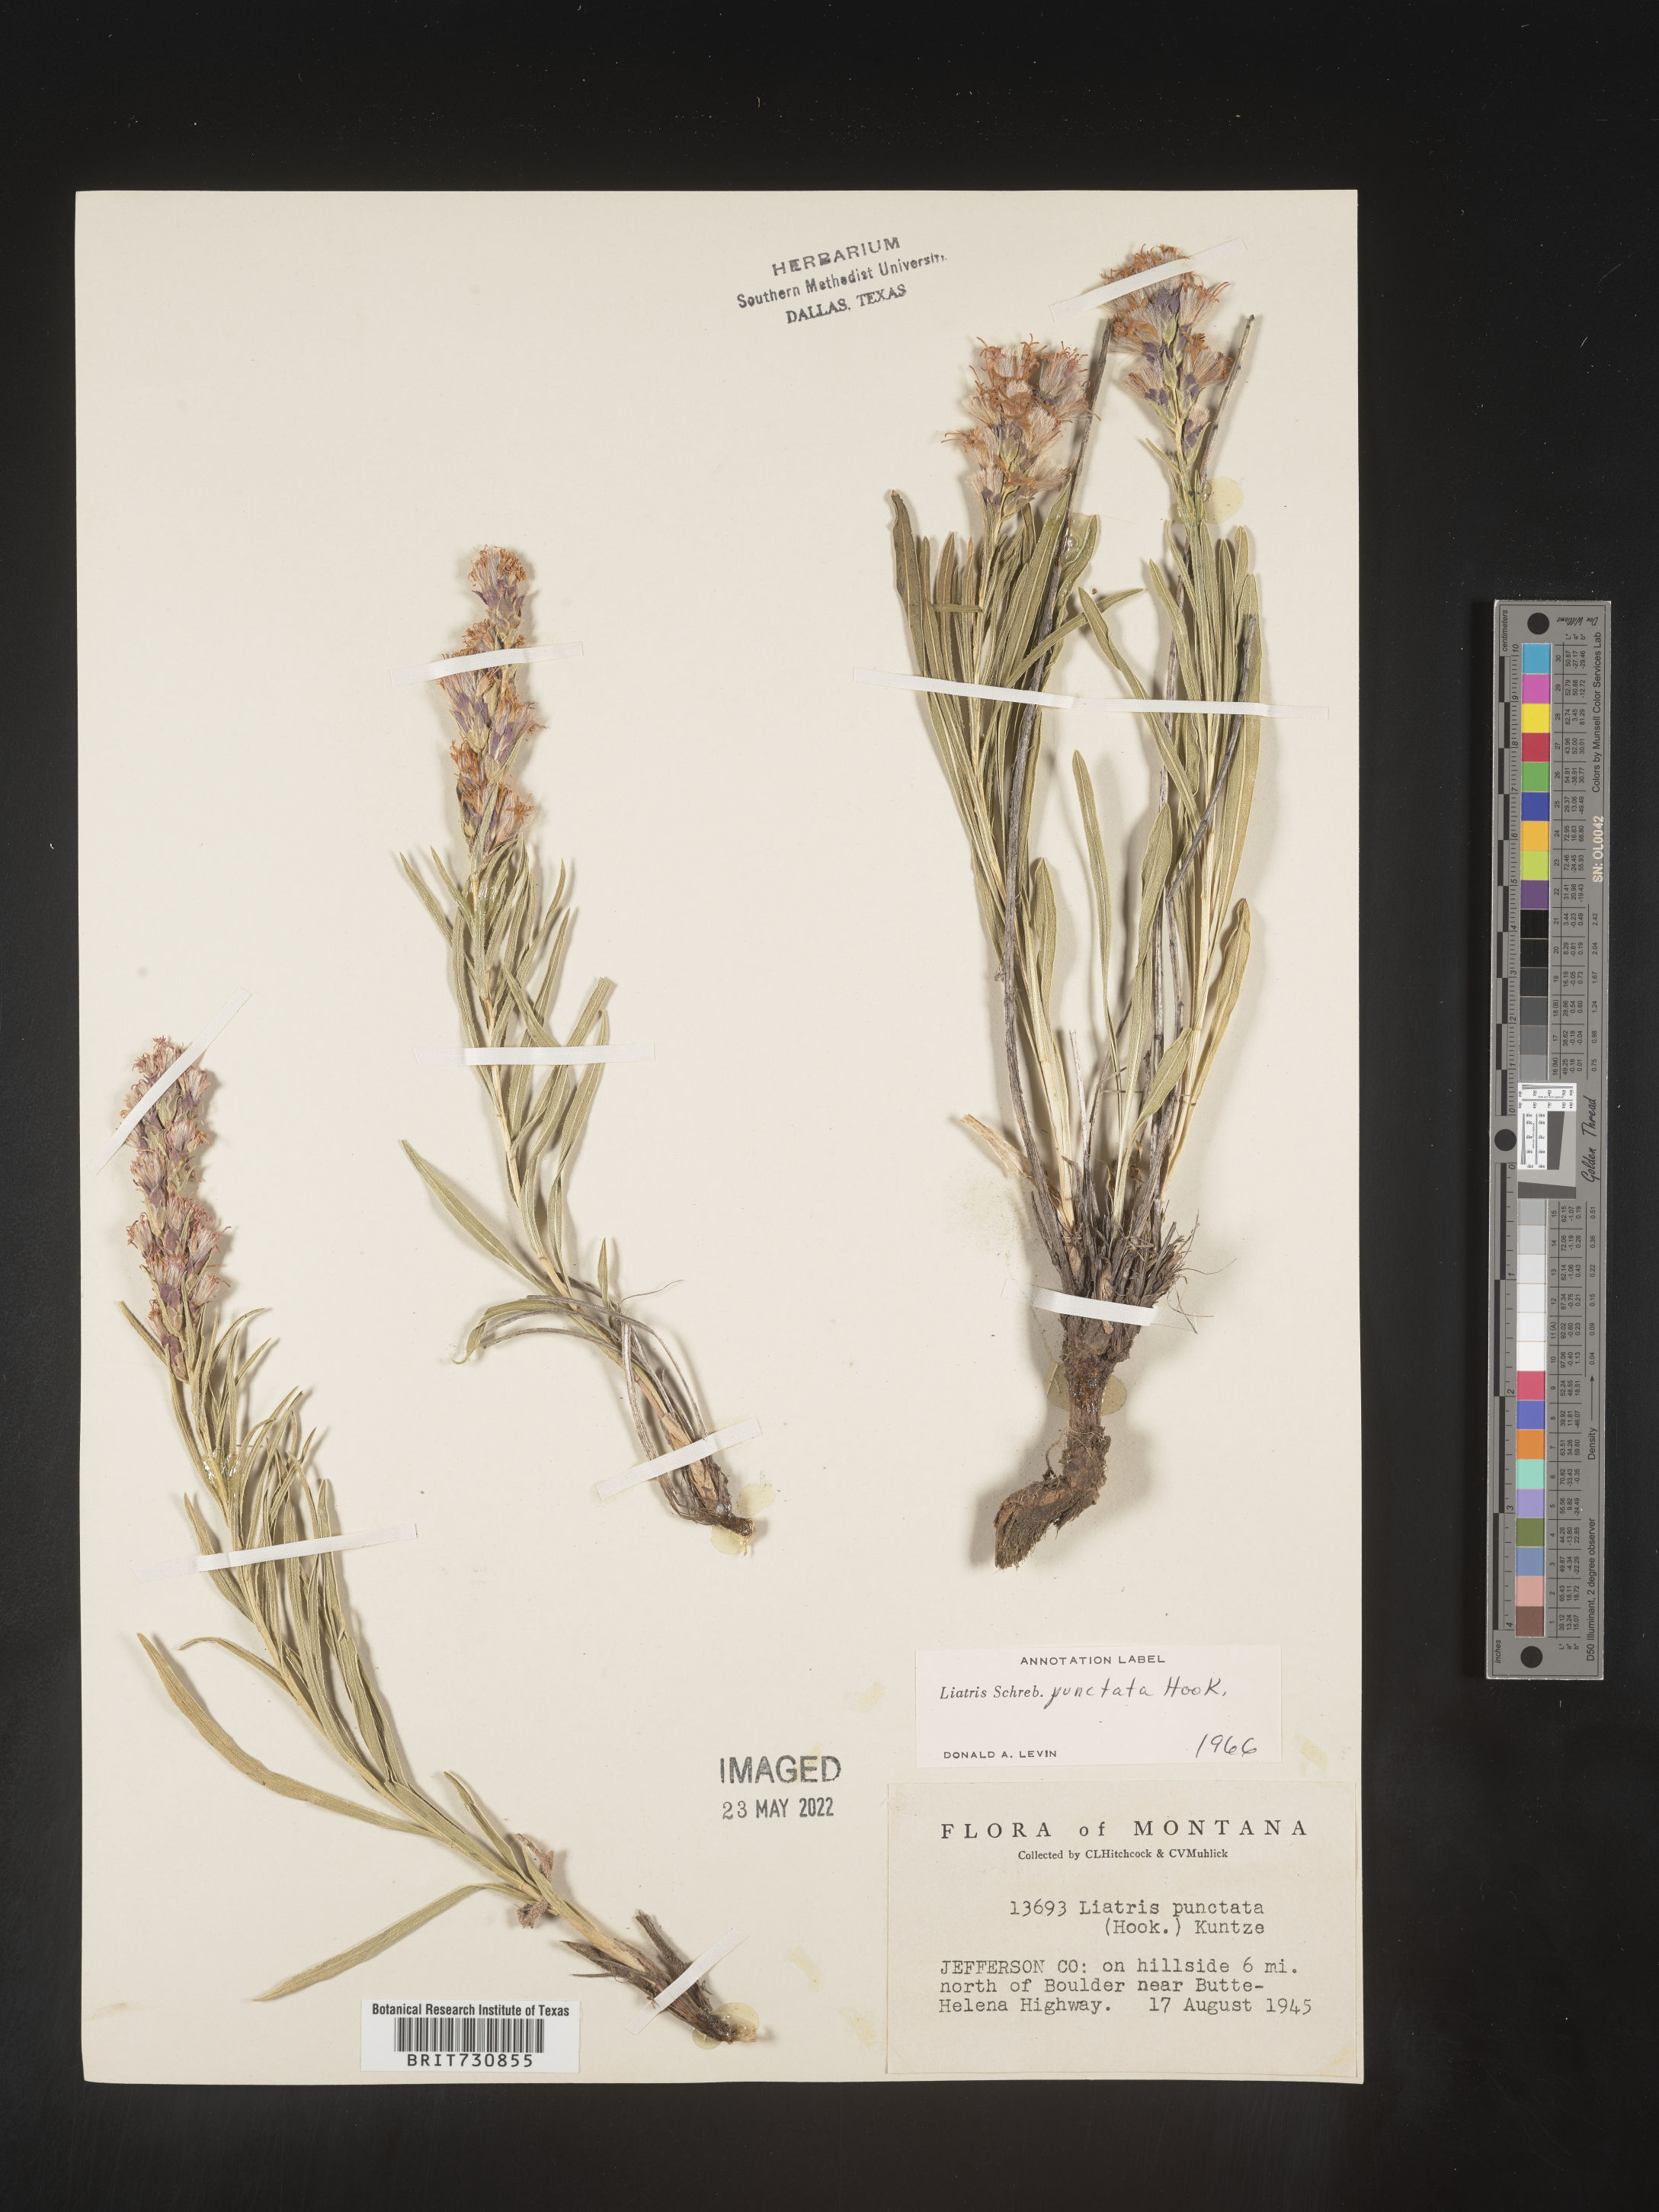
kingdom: Plantae
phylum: Tracheophyta
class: Magnoliopsida
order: Asterales
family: Asteraceae
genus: Liatris
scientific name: Liatris punctata
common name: Dotted gayfeather
